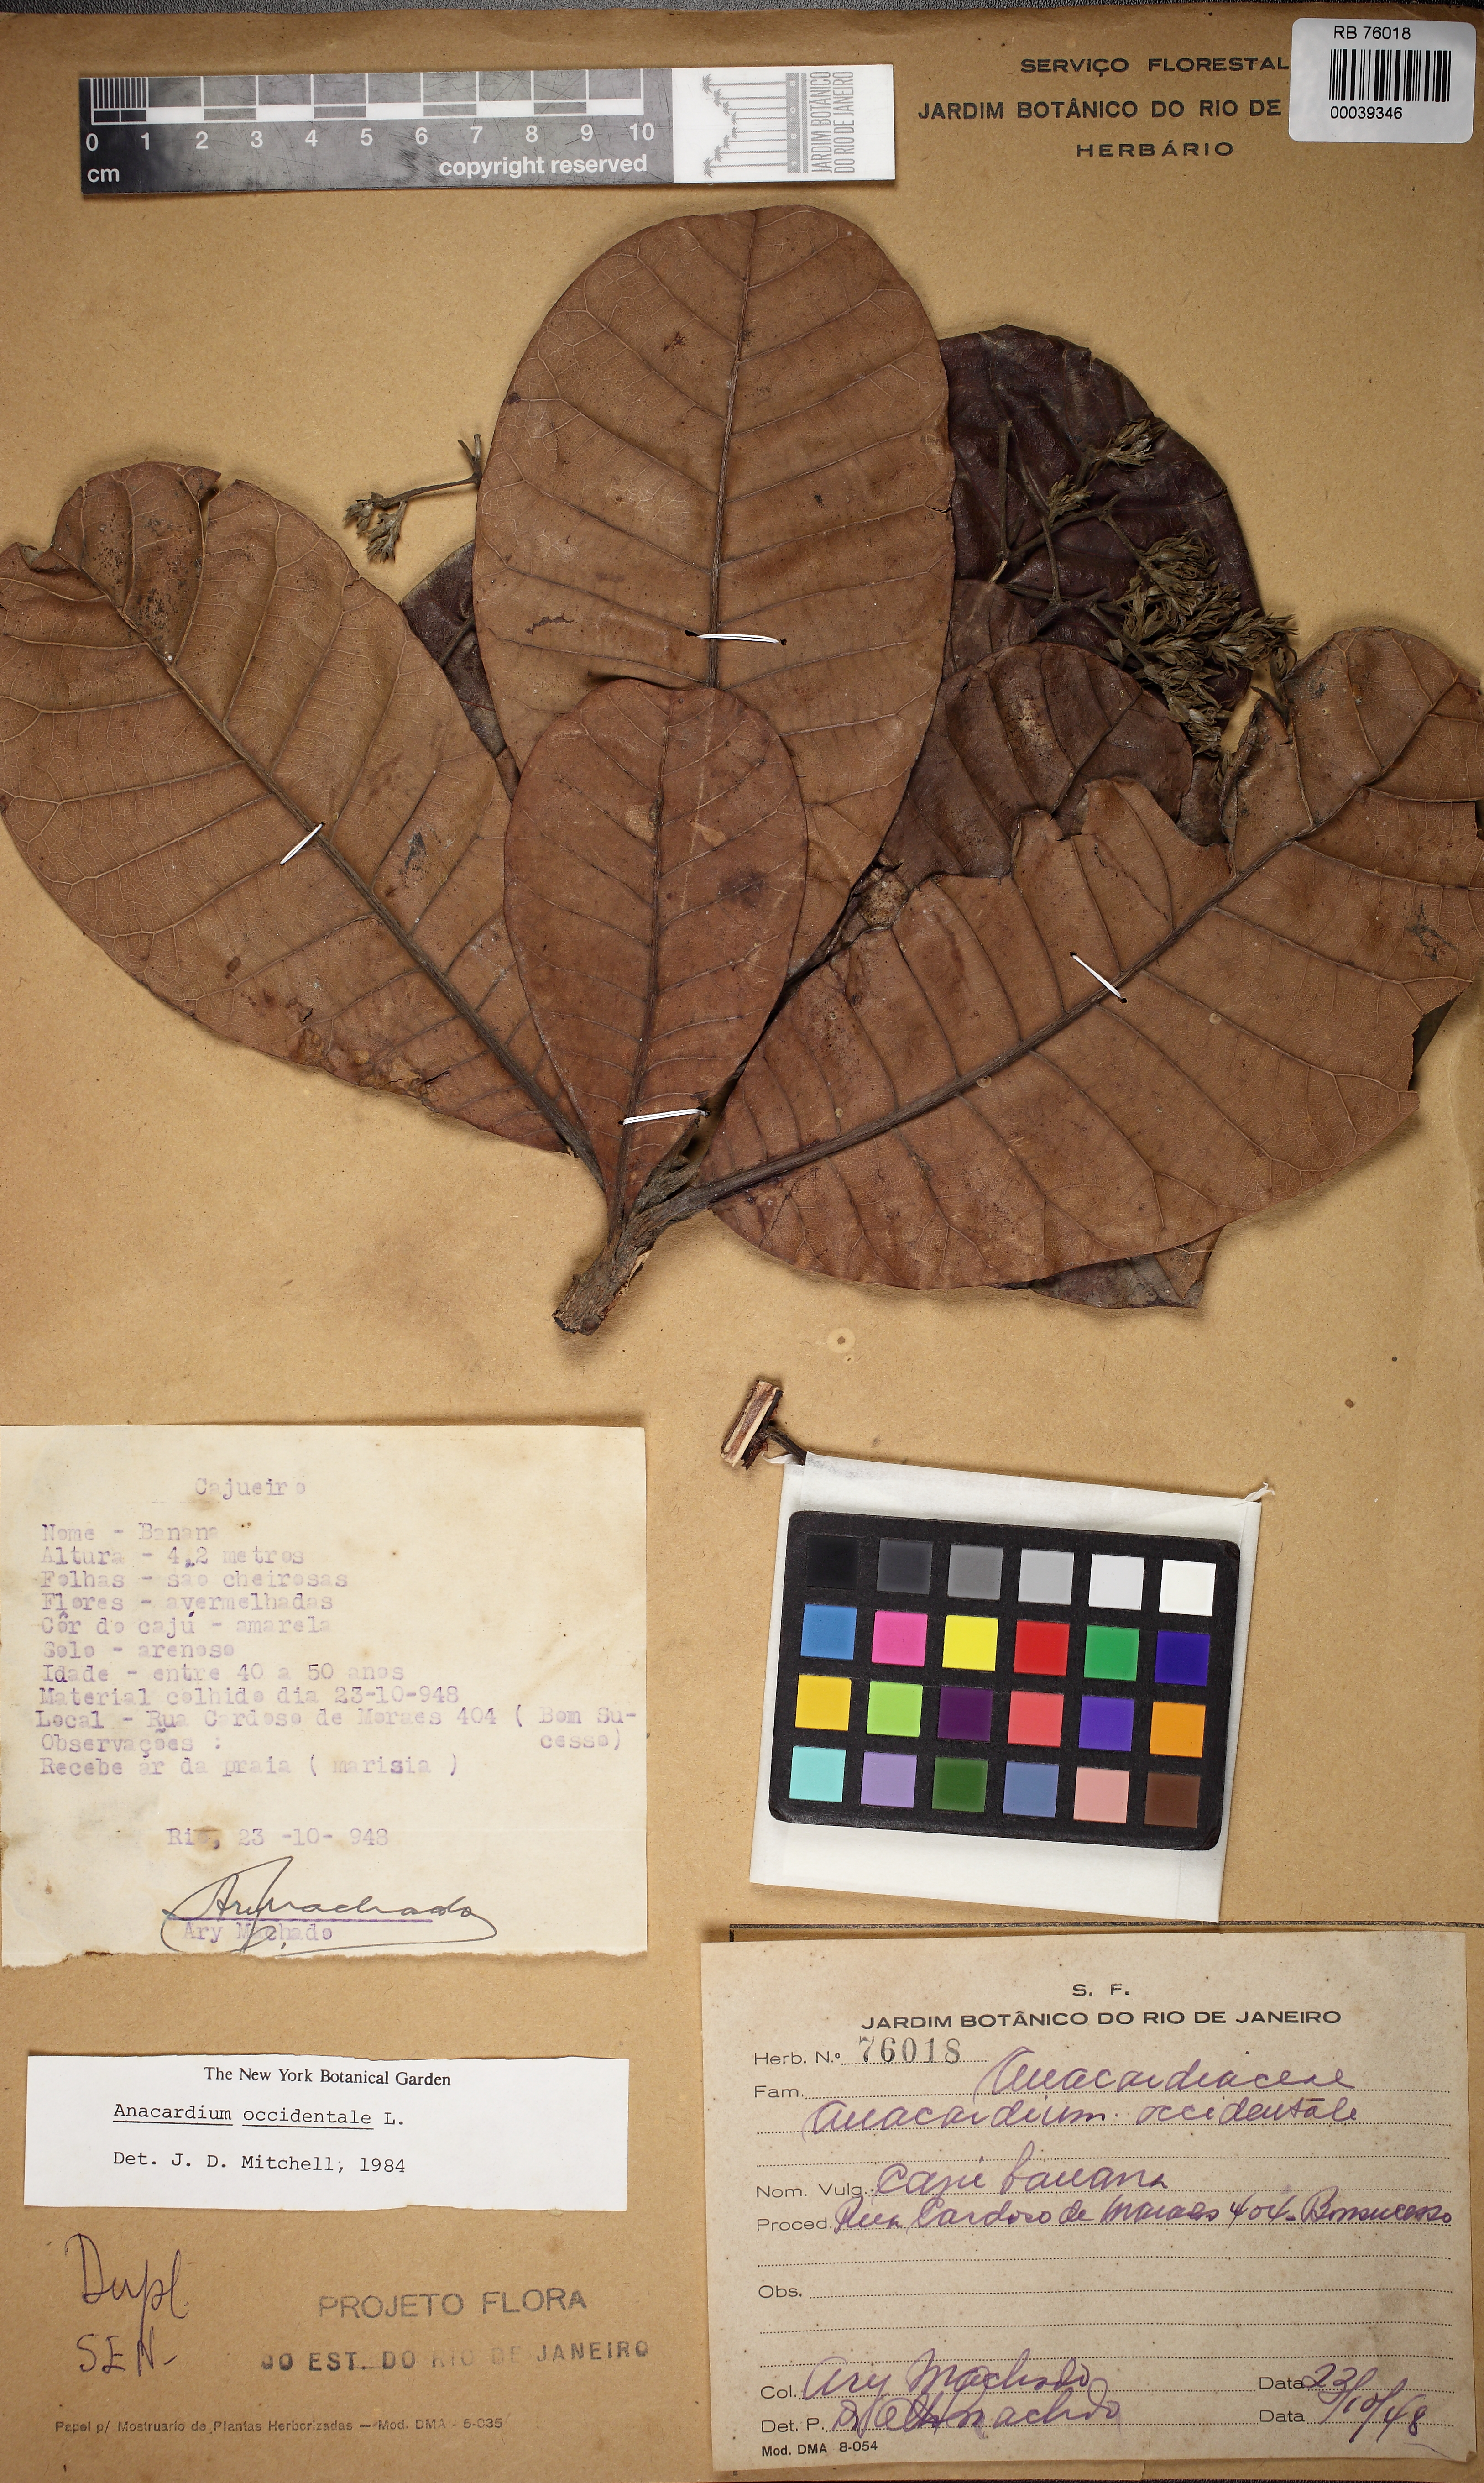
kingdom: Plantae
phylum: Tracheophyta
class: Magnoliopsida
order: Sapindales
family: Anacardiaceae
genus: Anacardium
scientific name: Anacardium occidentale
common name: Cashew
